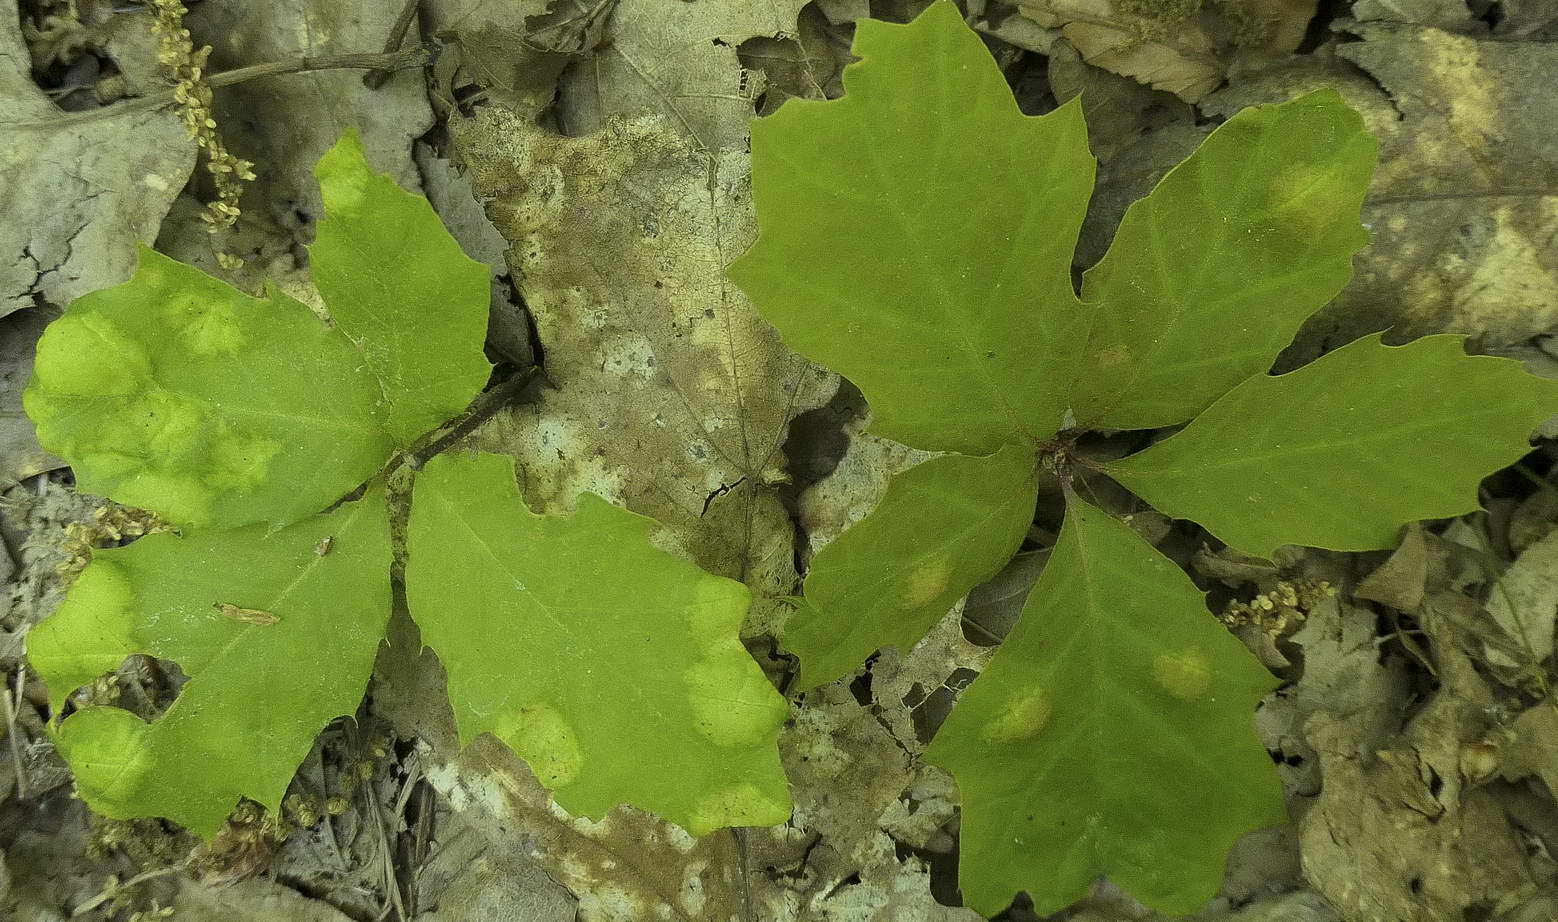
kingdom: Fungi
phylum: Ascomycota
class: Taphrinomycetes
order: Taphrinales
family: Taphrinaceae
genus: Taphrina
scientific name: Taphrina caerulescens
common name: Oak leaf blister
